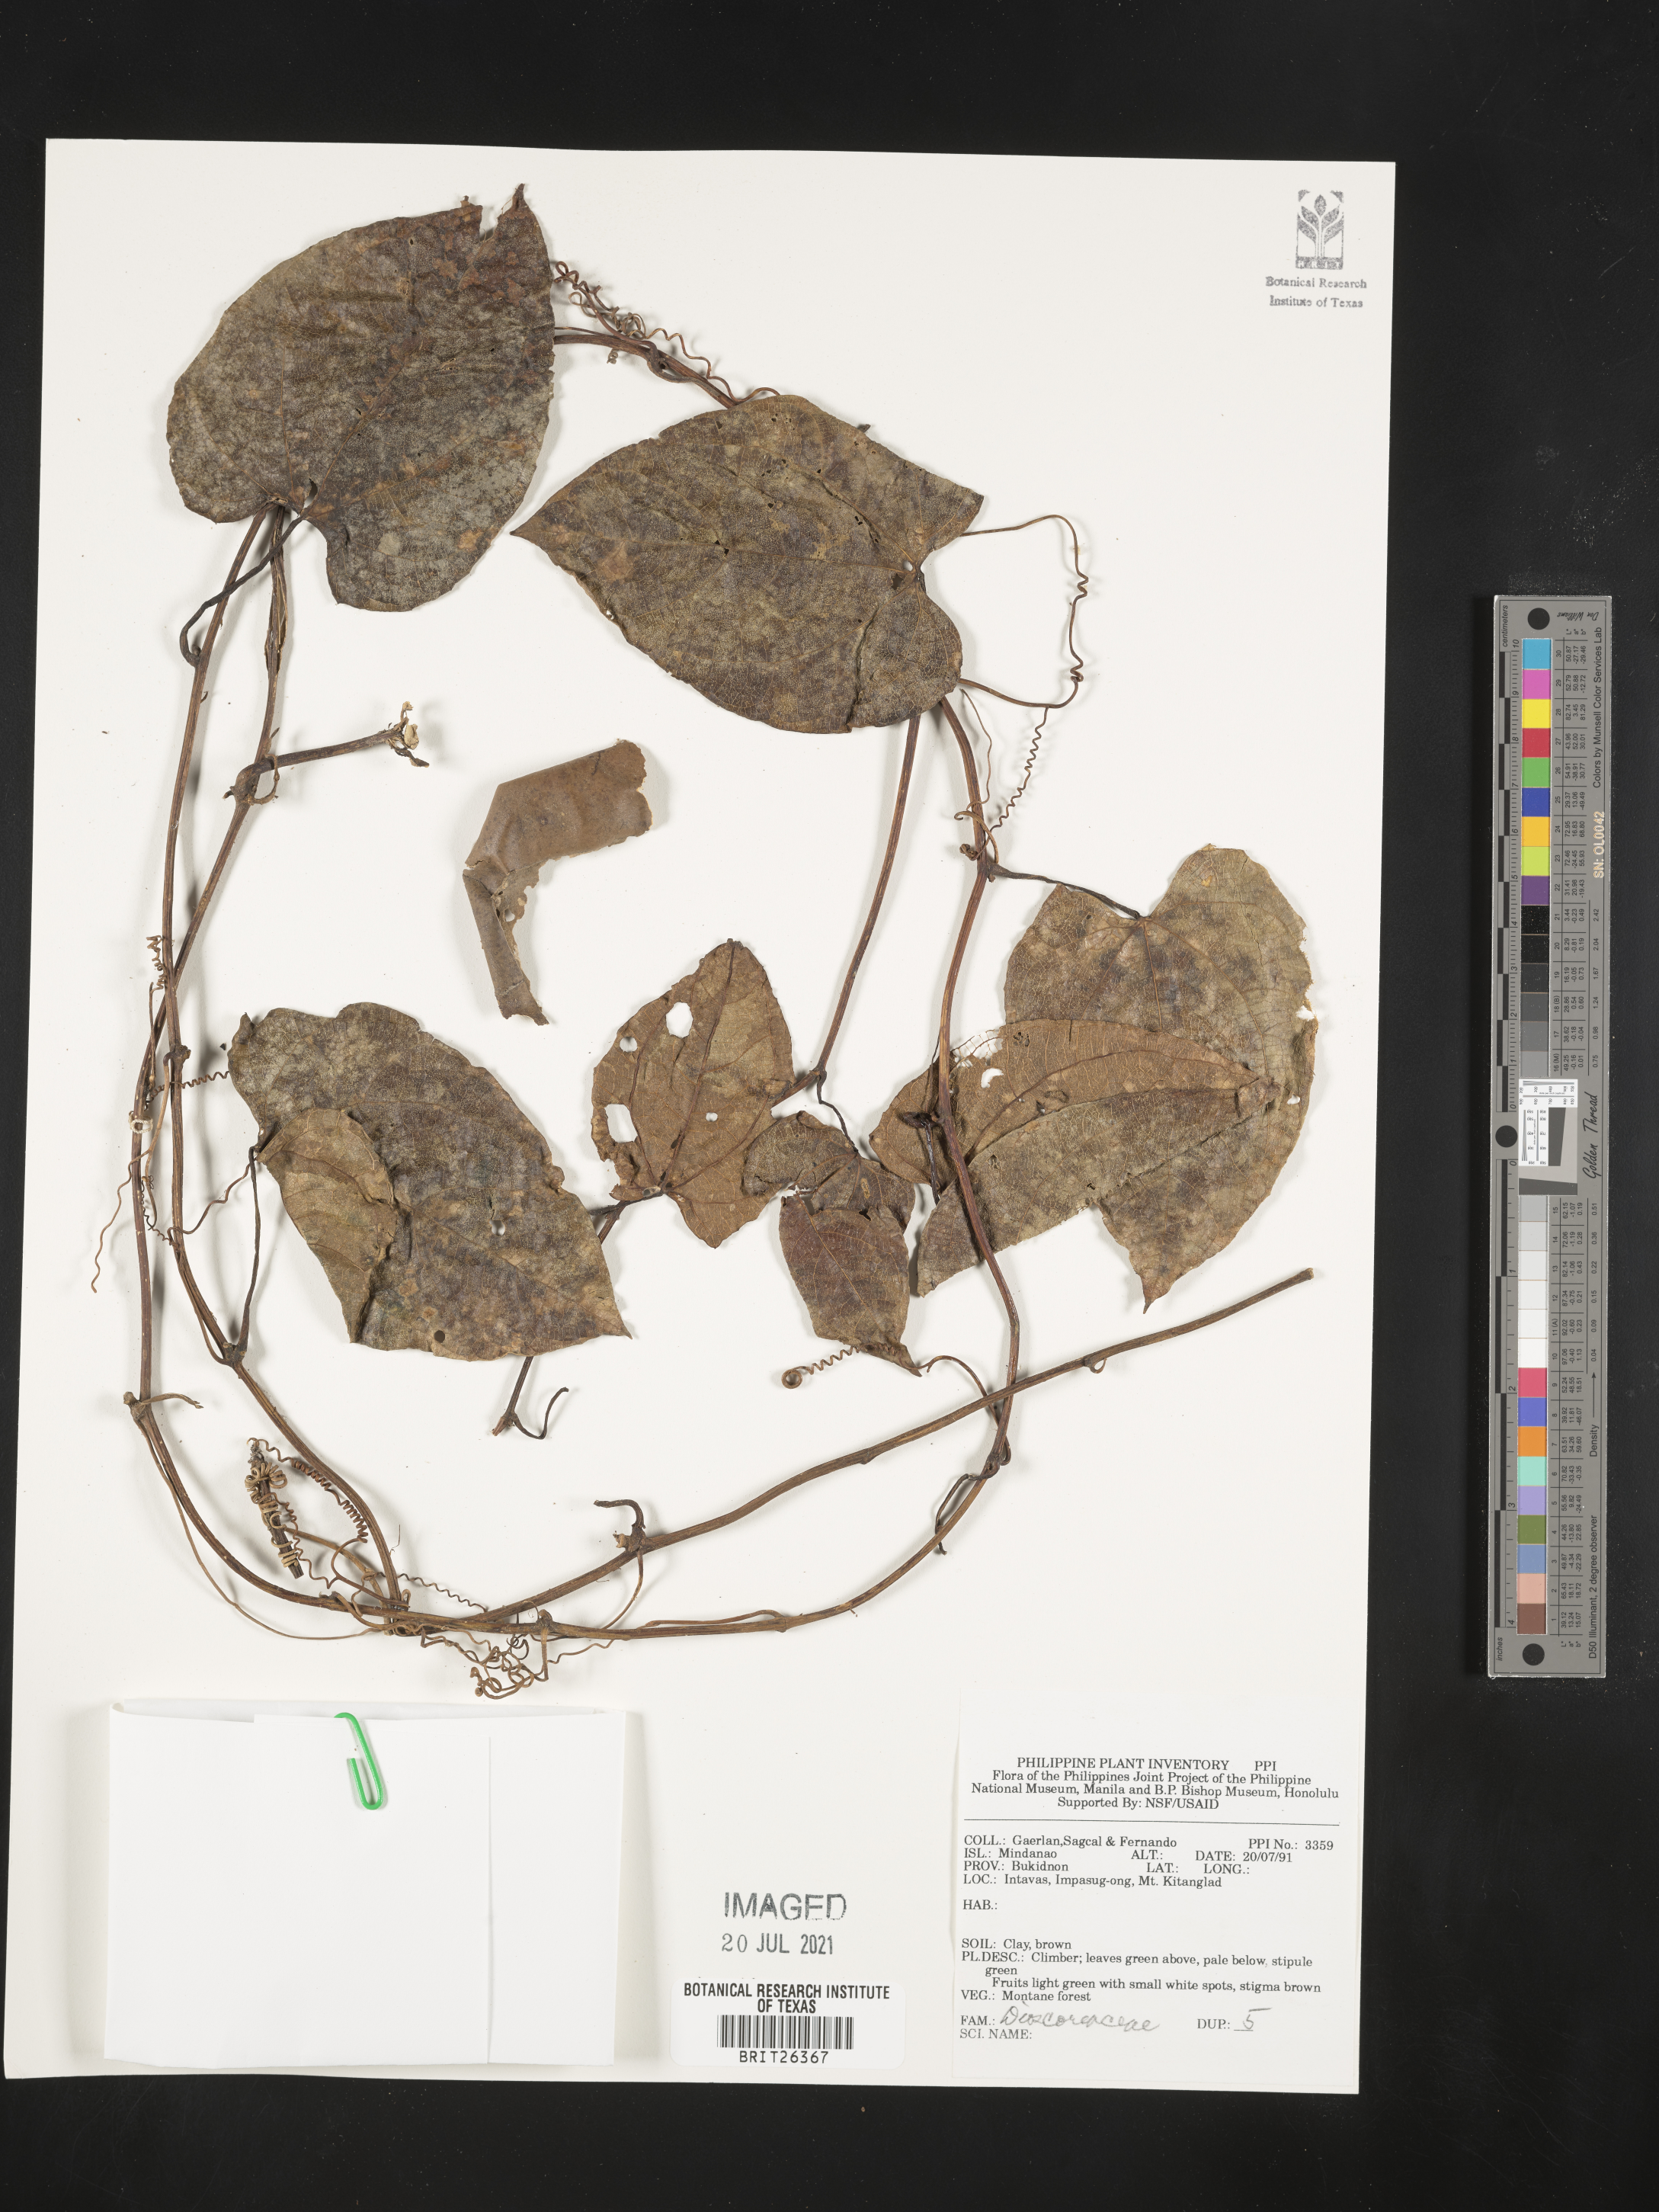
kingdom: Plantae
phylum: Tracheophyta
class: Liliopsida
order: Dioscoreales
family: Dioscoreaceae
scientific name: Dioscoreaceae
